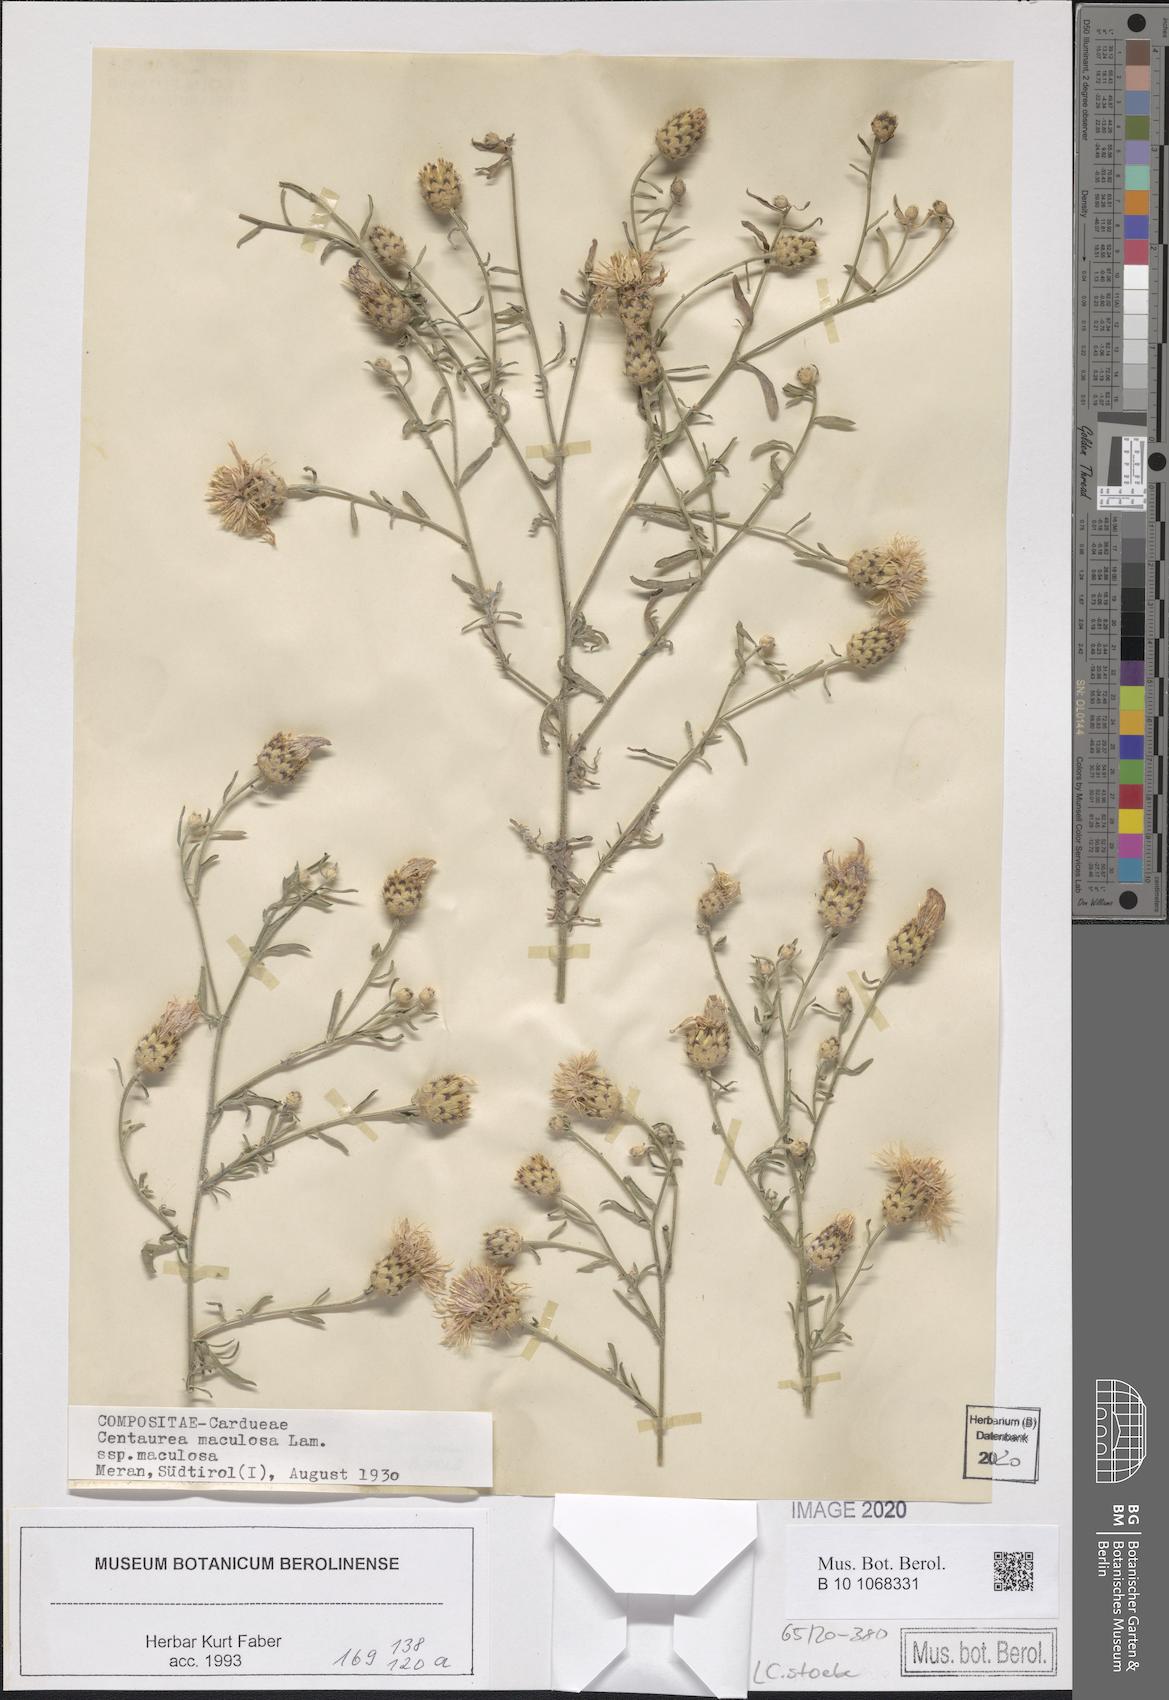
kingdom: Plantae
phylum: Tracheophyta
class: Magnoliopsida
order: Asterales
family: Asteraceae
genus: Centaurea
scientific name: Centaurea stoebe
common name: Spotted knapweed
